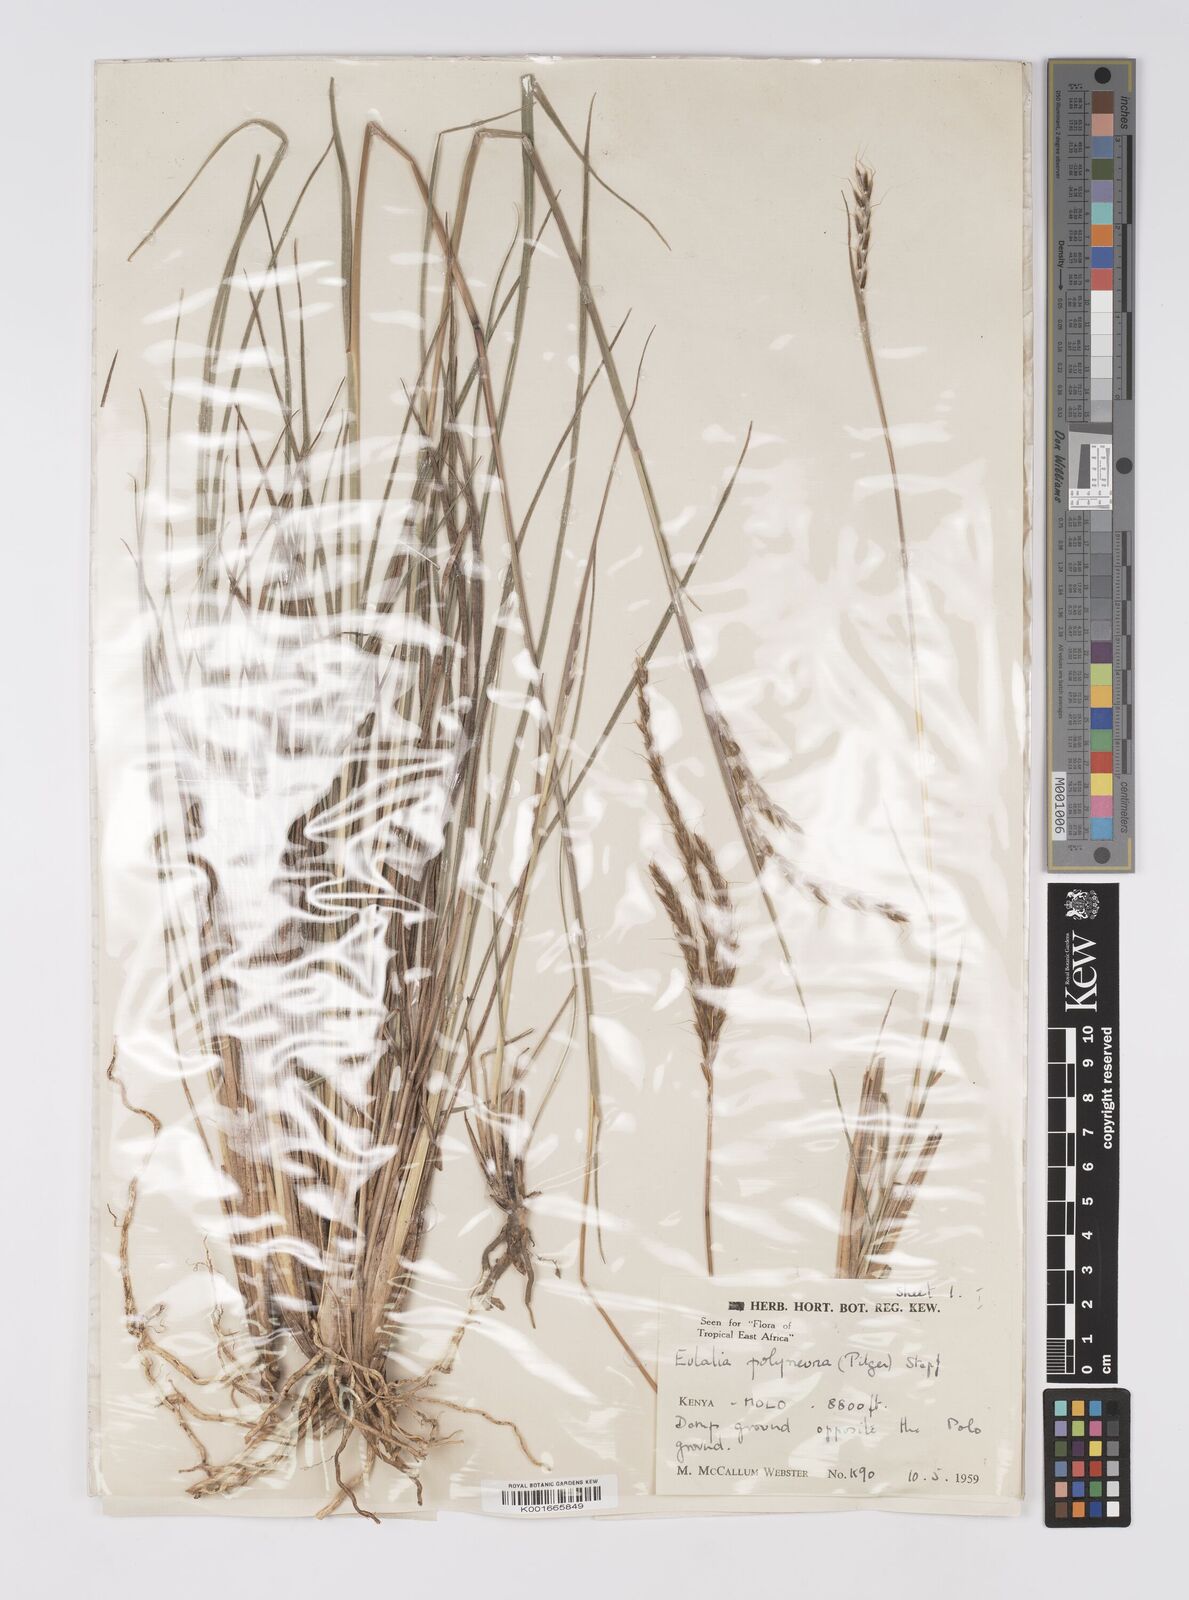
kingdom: Plantae
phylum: Tracheophyta
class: Liliopsida
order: Poales
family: Poaceae
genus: Eulalia
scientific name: Eulalia polyneura
